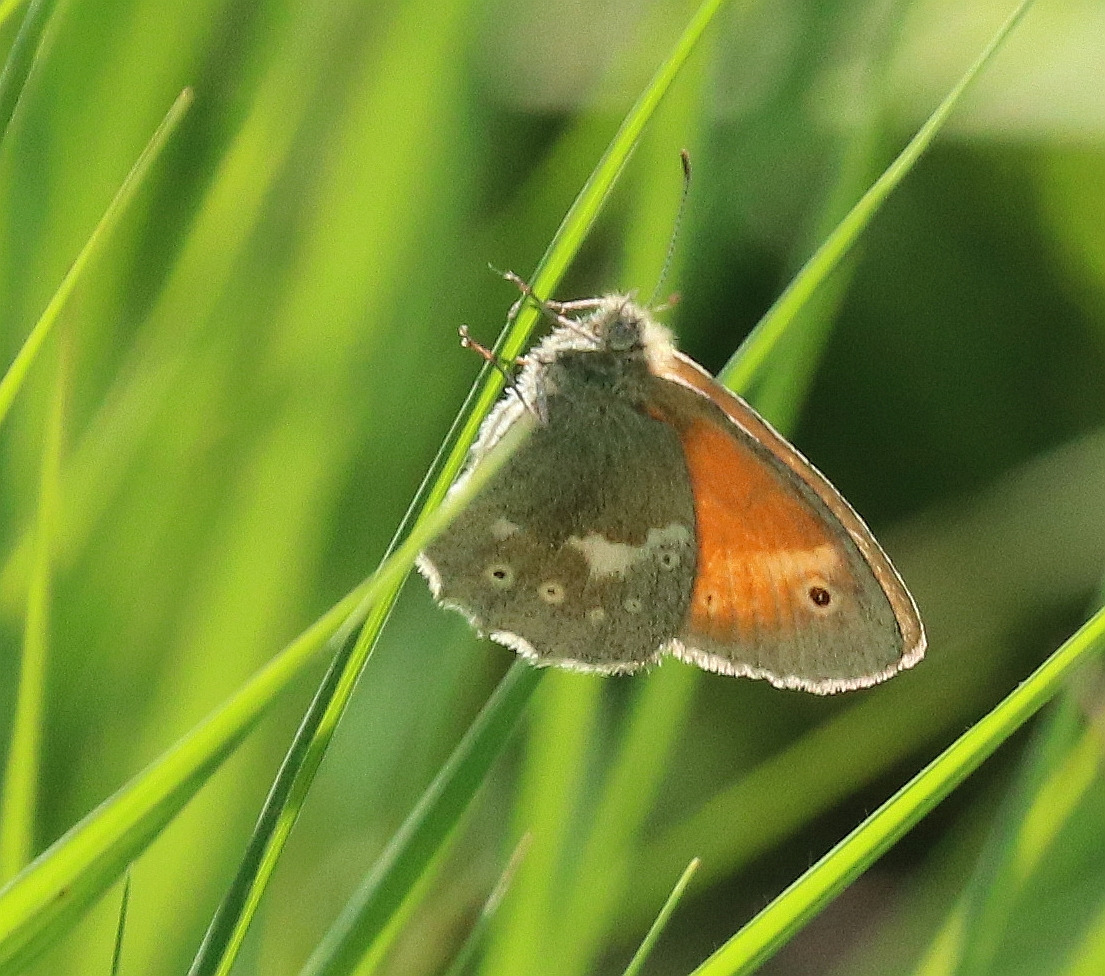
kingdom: Animalia
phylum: Arthropoda
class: Insecta
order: Lepidoptera
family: Nymphalidae
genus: Coenonympha
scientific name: Coenonympha tullia
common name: Moserandøje
